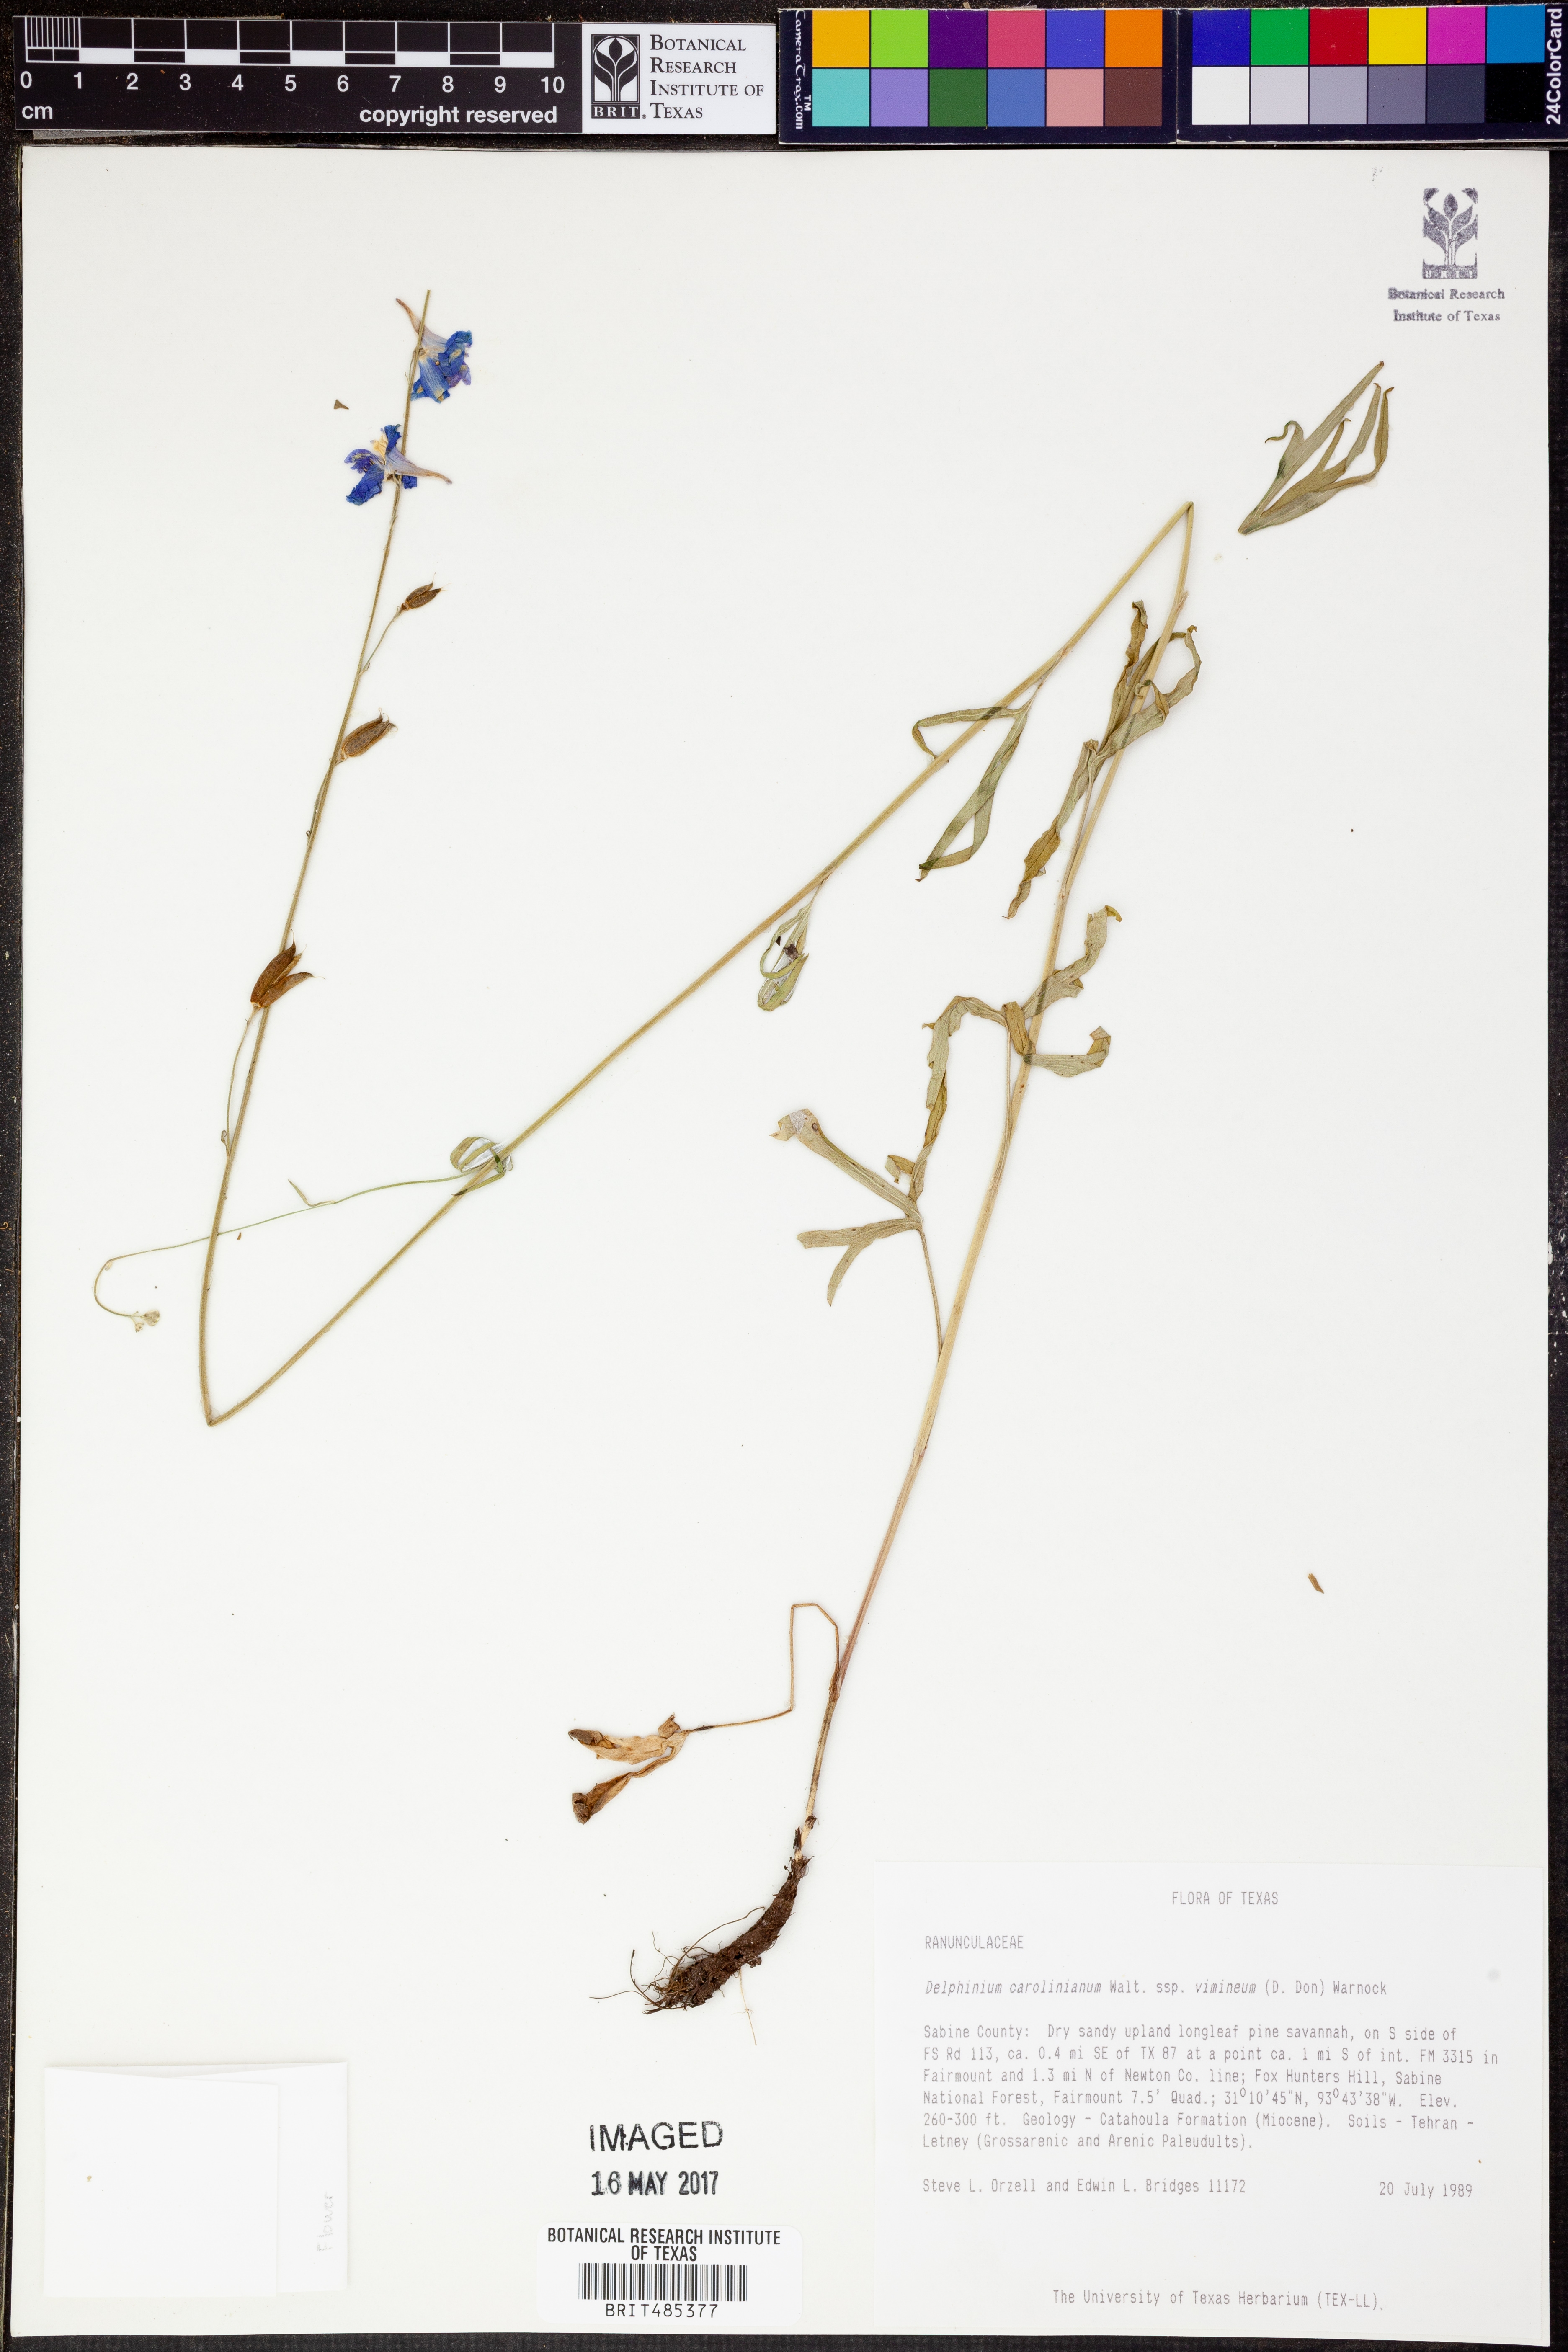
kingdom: Plantae
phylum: Tracheophyta
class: Magnoliopsida
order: Ranunculales
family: Ranunculaceae
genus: Delphinium
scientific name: Delphinium carolinianum
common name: Carolina larkspur
